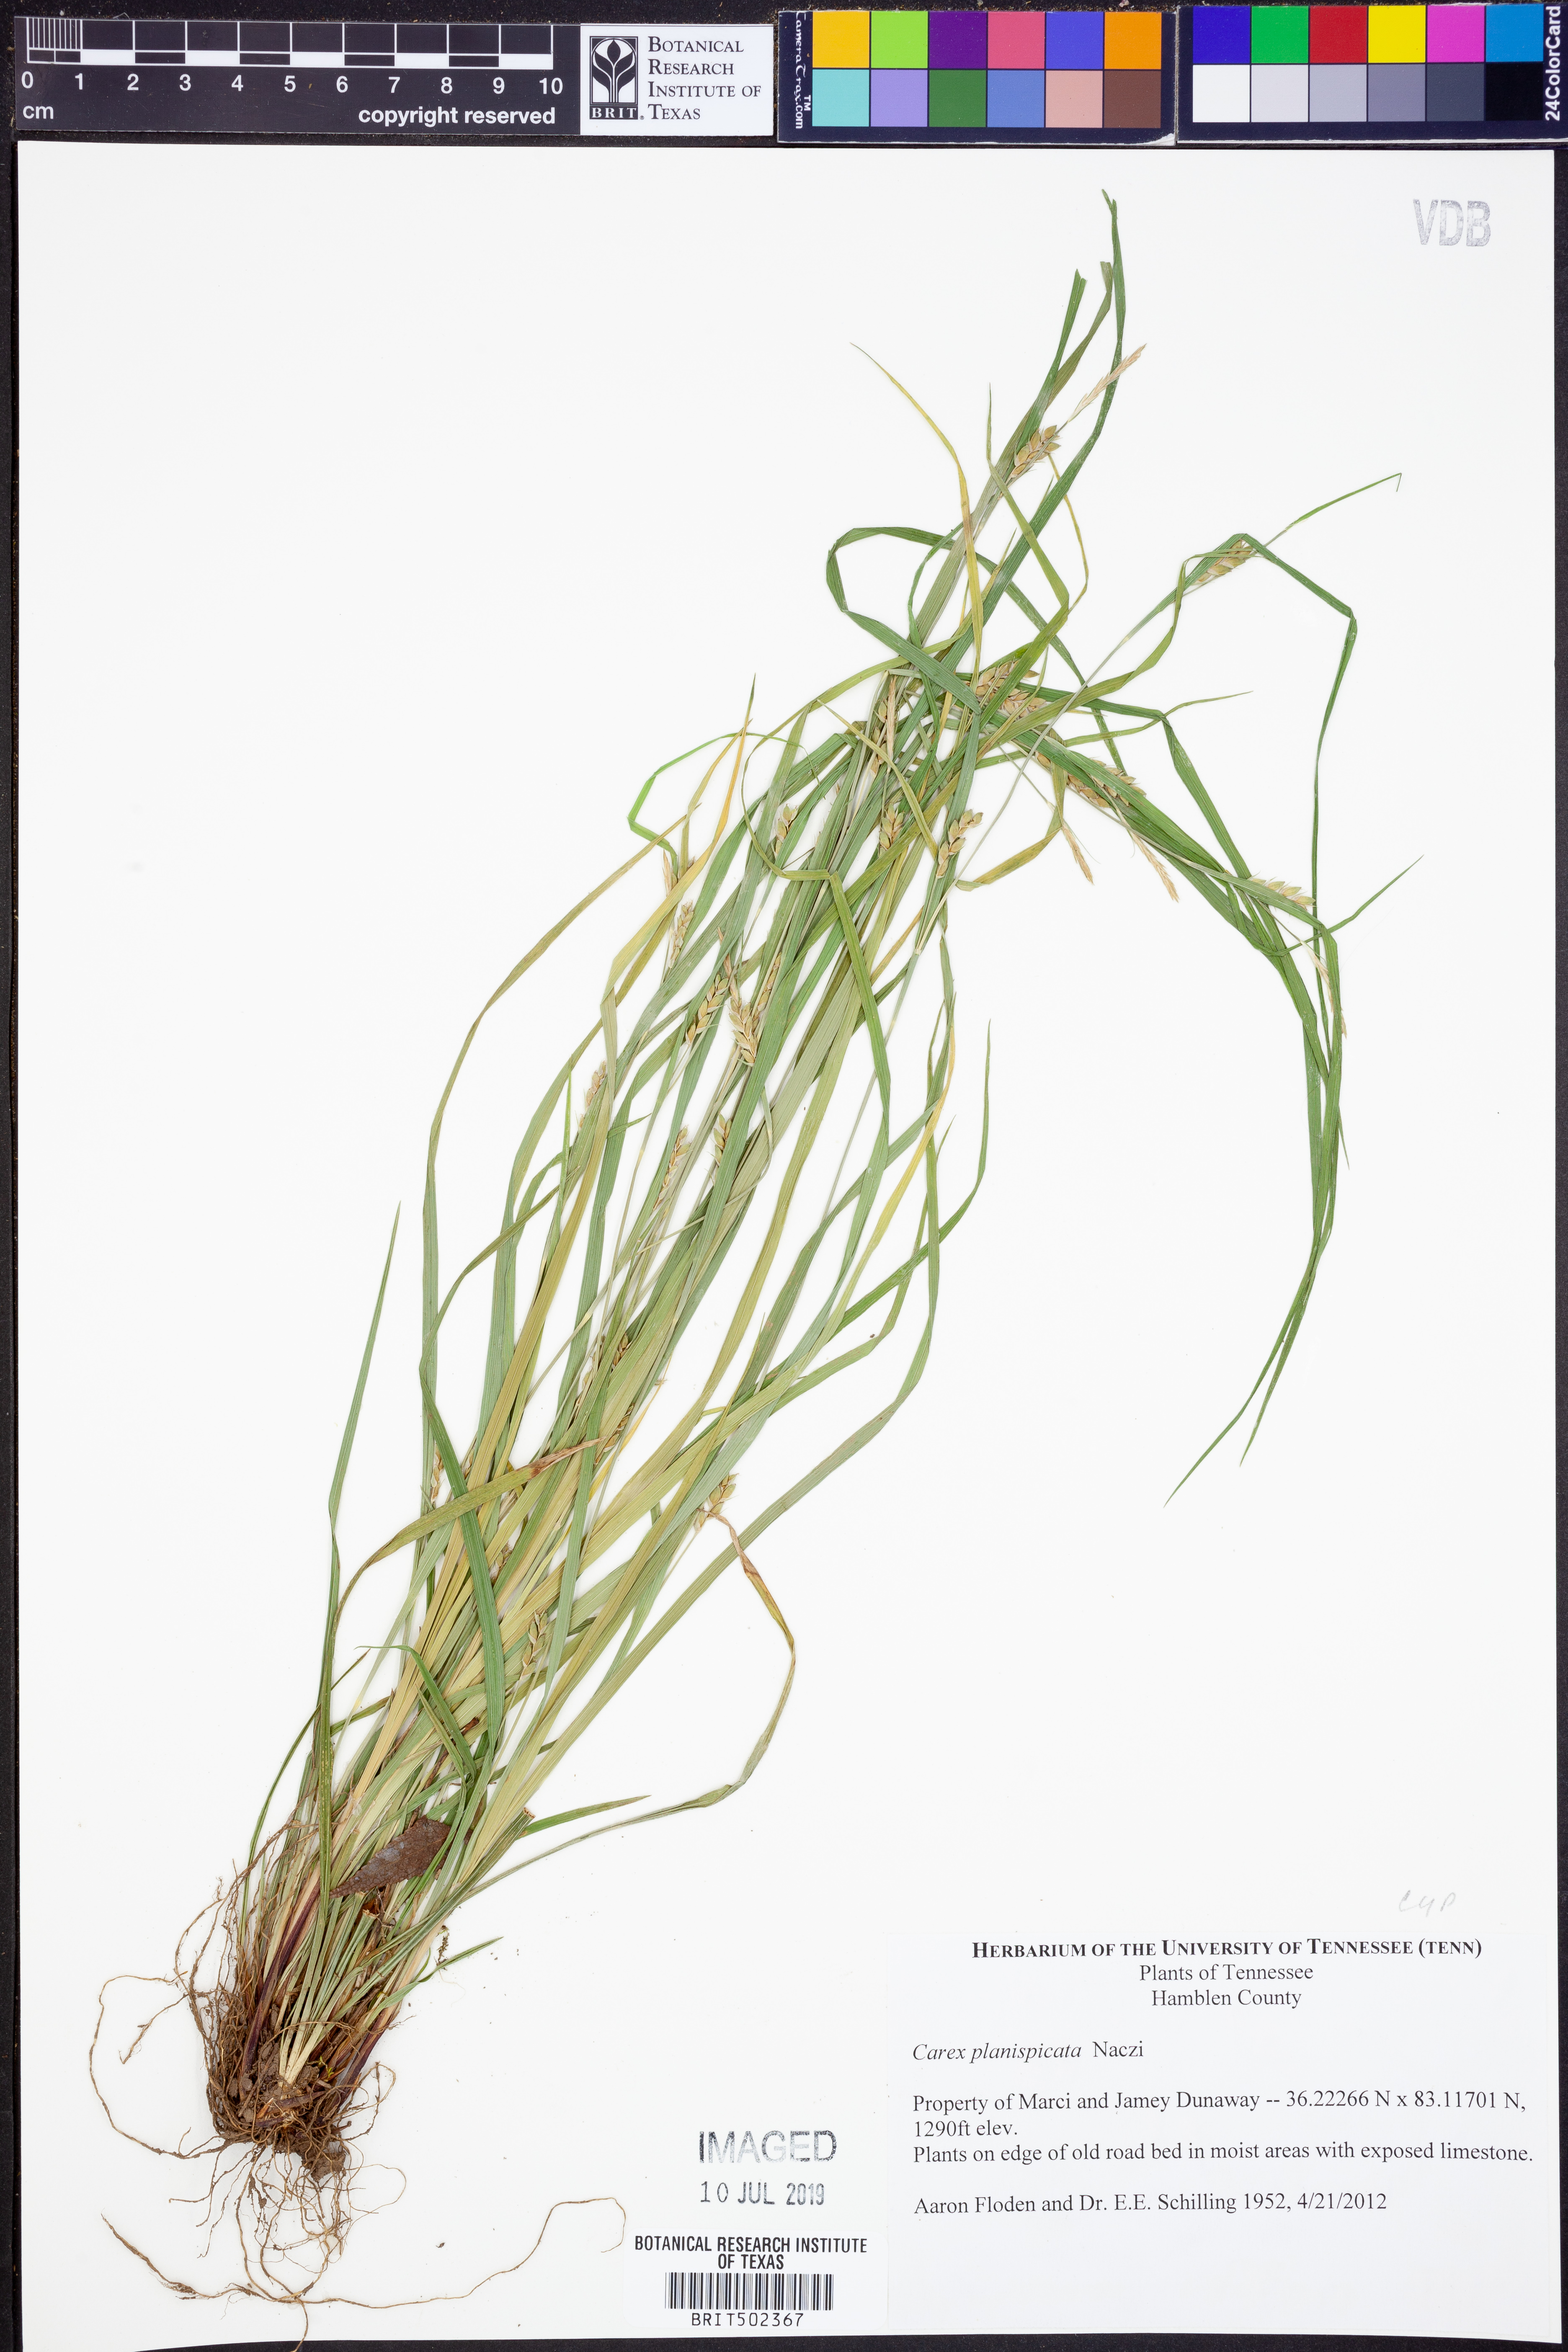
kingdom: Plantae
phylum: Tracheophyta
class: Liliopsida
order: Poales
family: Cyperaceae
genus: Carex
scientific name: Carex planispicata
